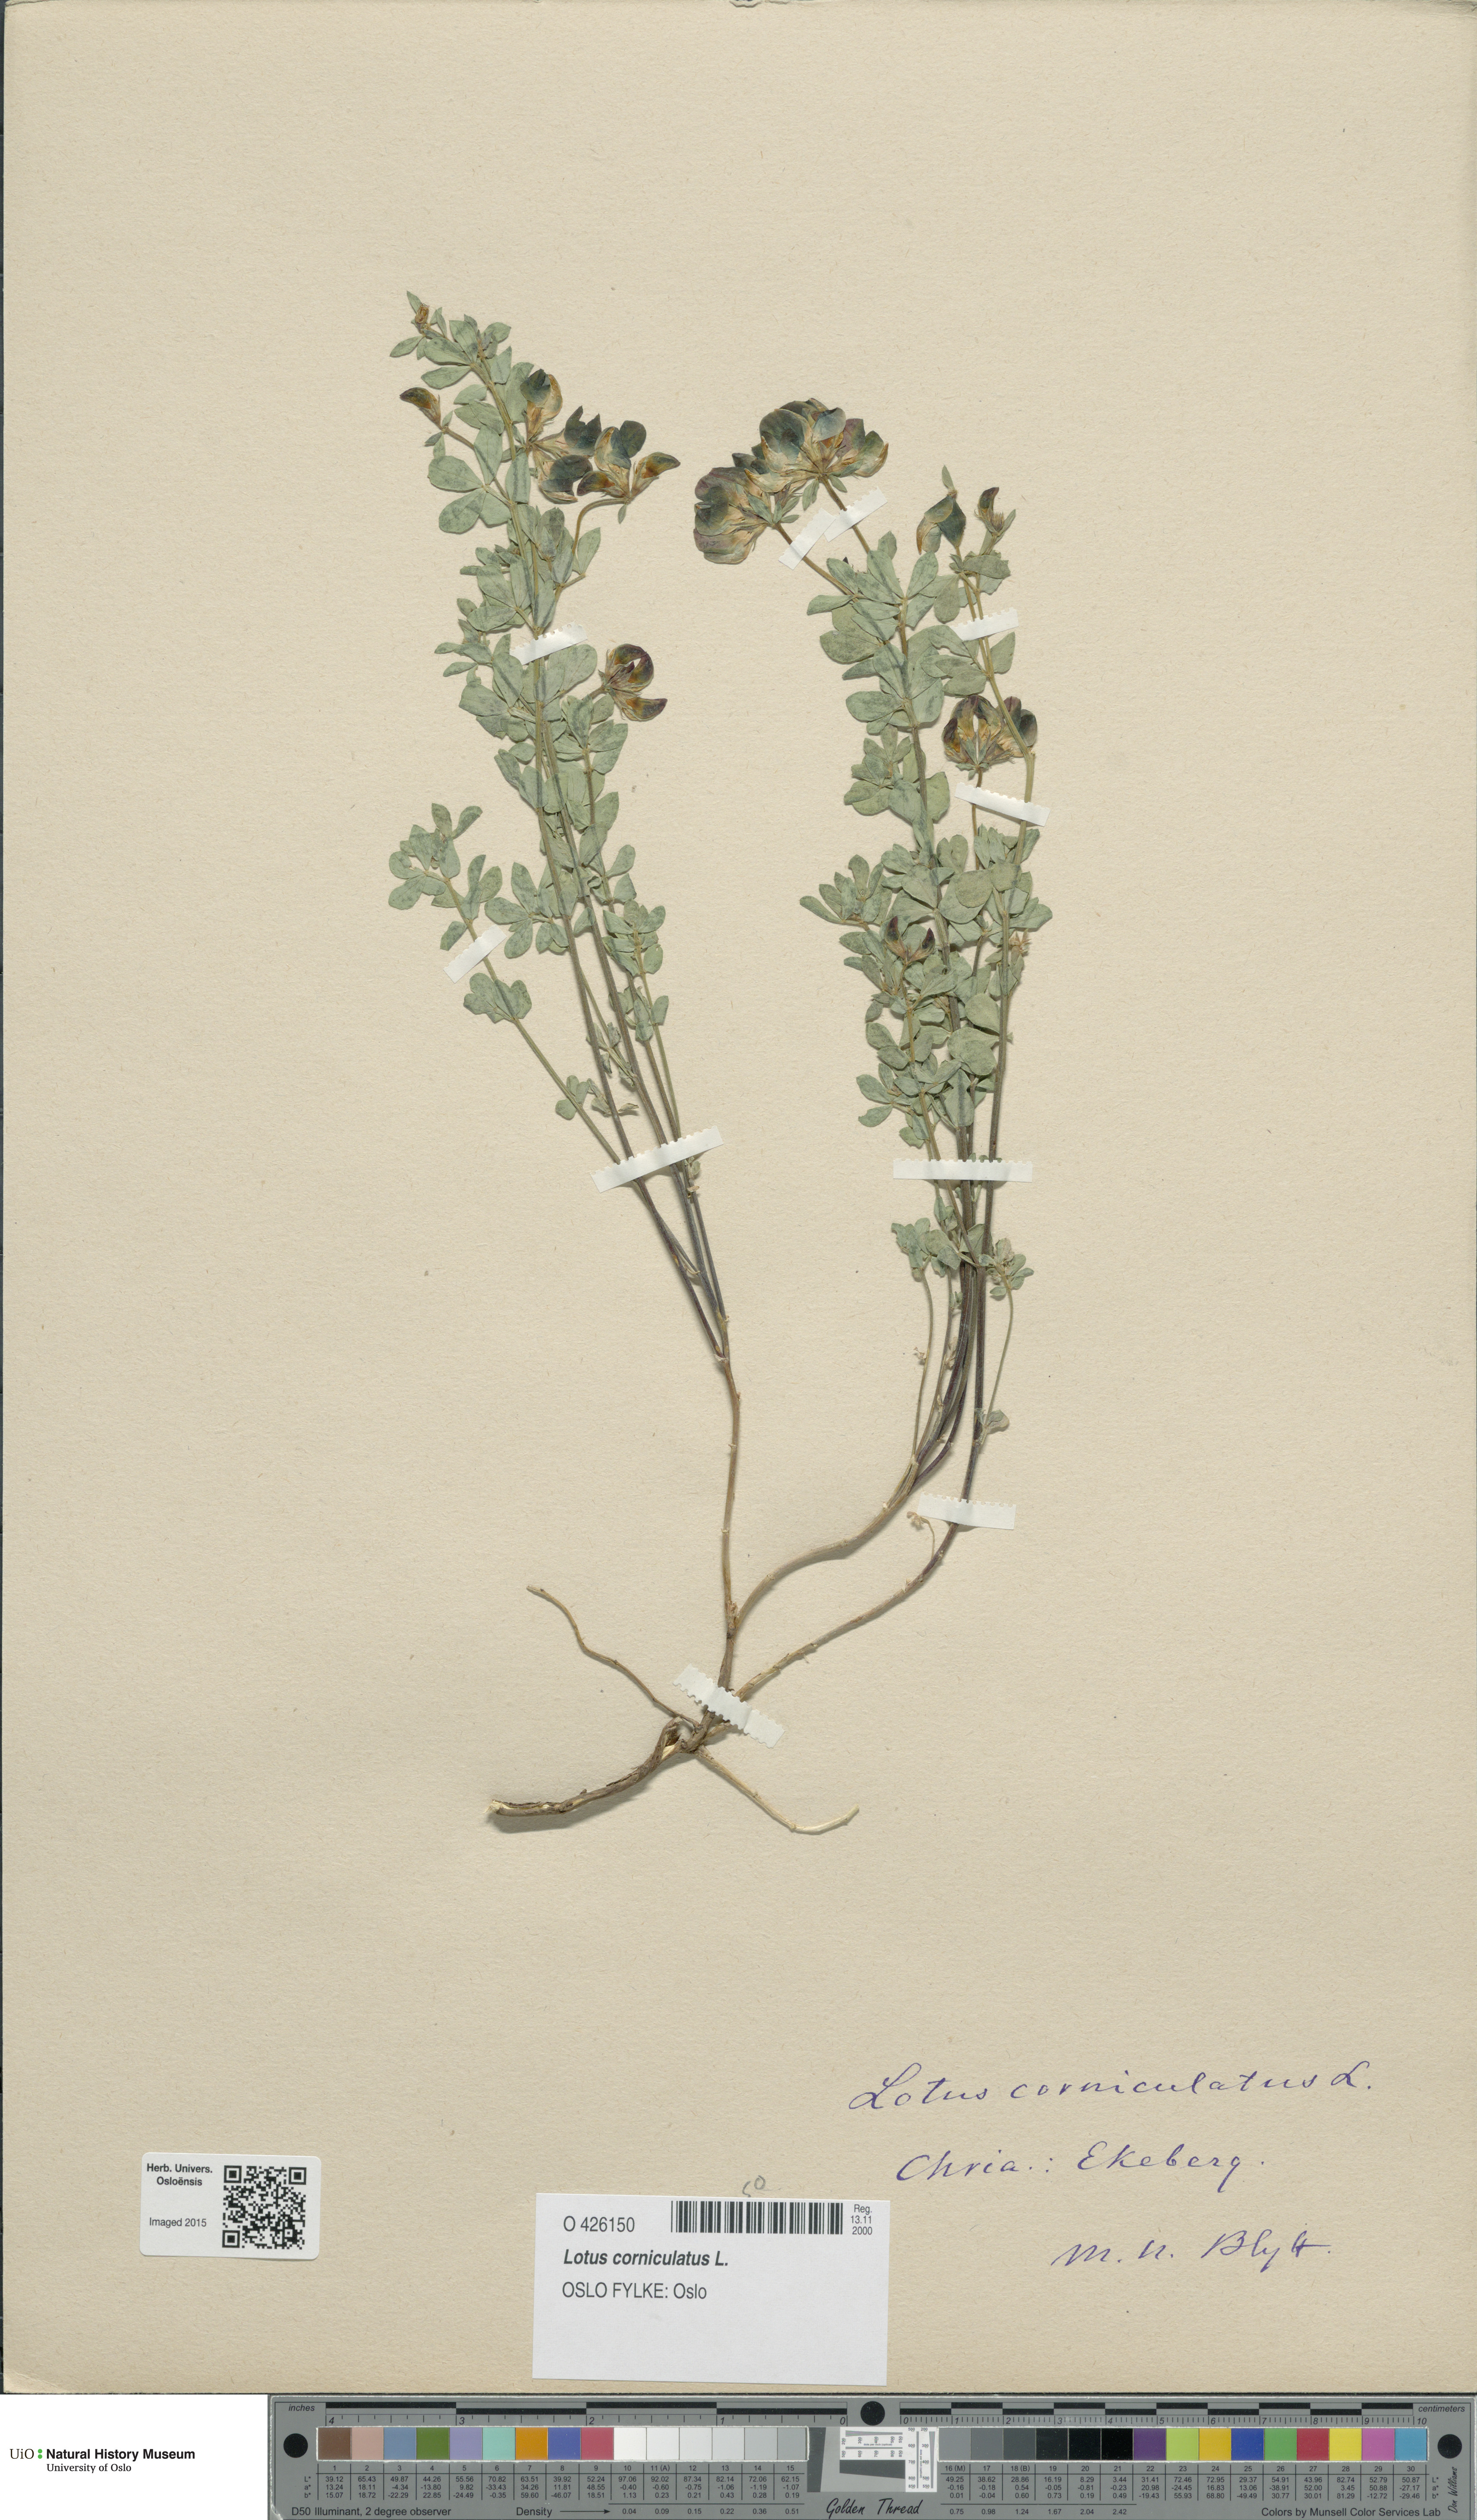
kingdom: Plantae
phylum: Tracheophyta
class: Magnoliopsida
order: Fabales
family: Fabaceae
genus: Lotus
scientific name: Lotus corniculatus
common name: Common bird's-foot-trefoil
